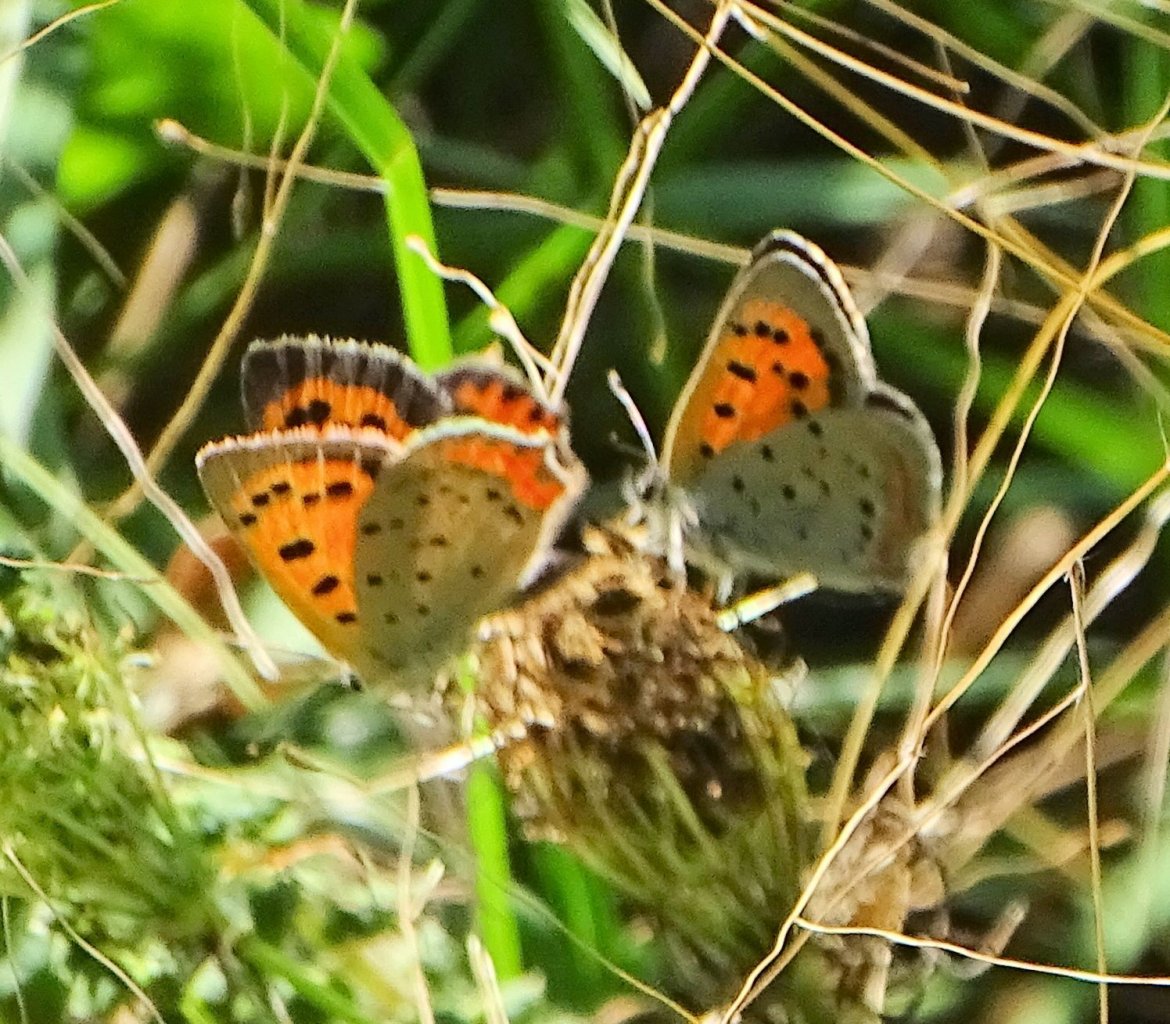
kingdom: Animalia
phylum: Arthropoda
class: Insecta
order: Lepidoptera
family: Lycaenidae
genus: Lycaena
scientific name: Lycaena phlaeas
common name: American Copper
